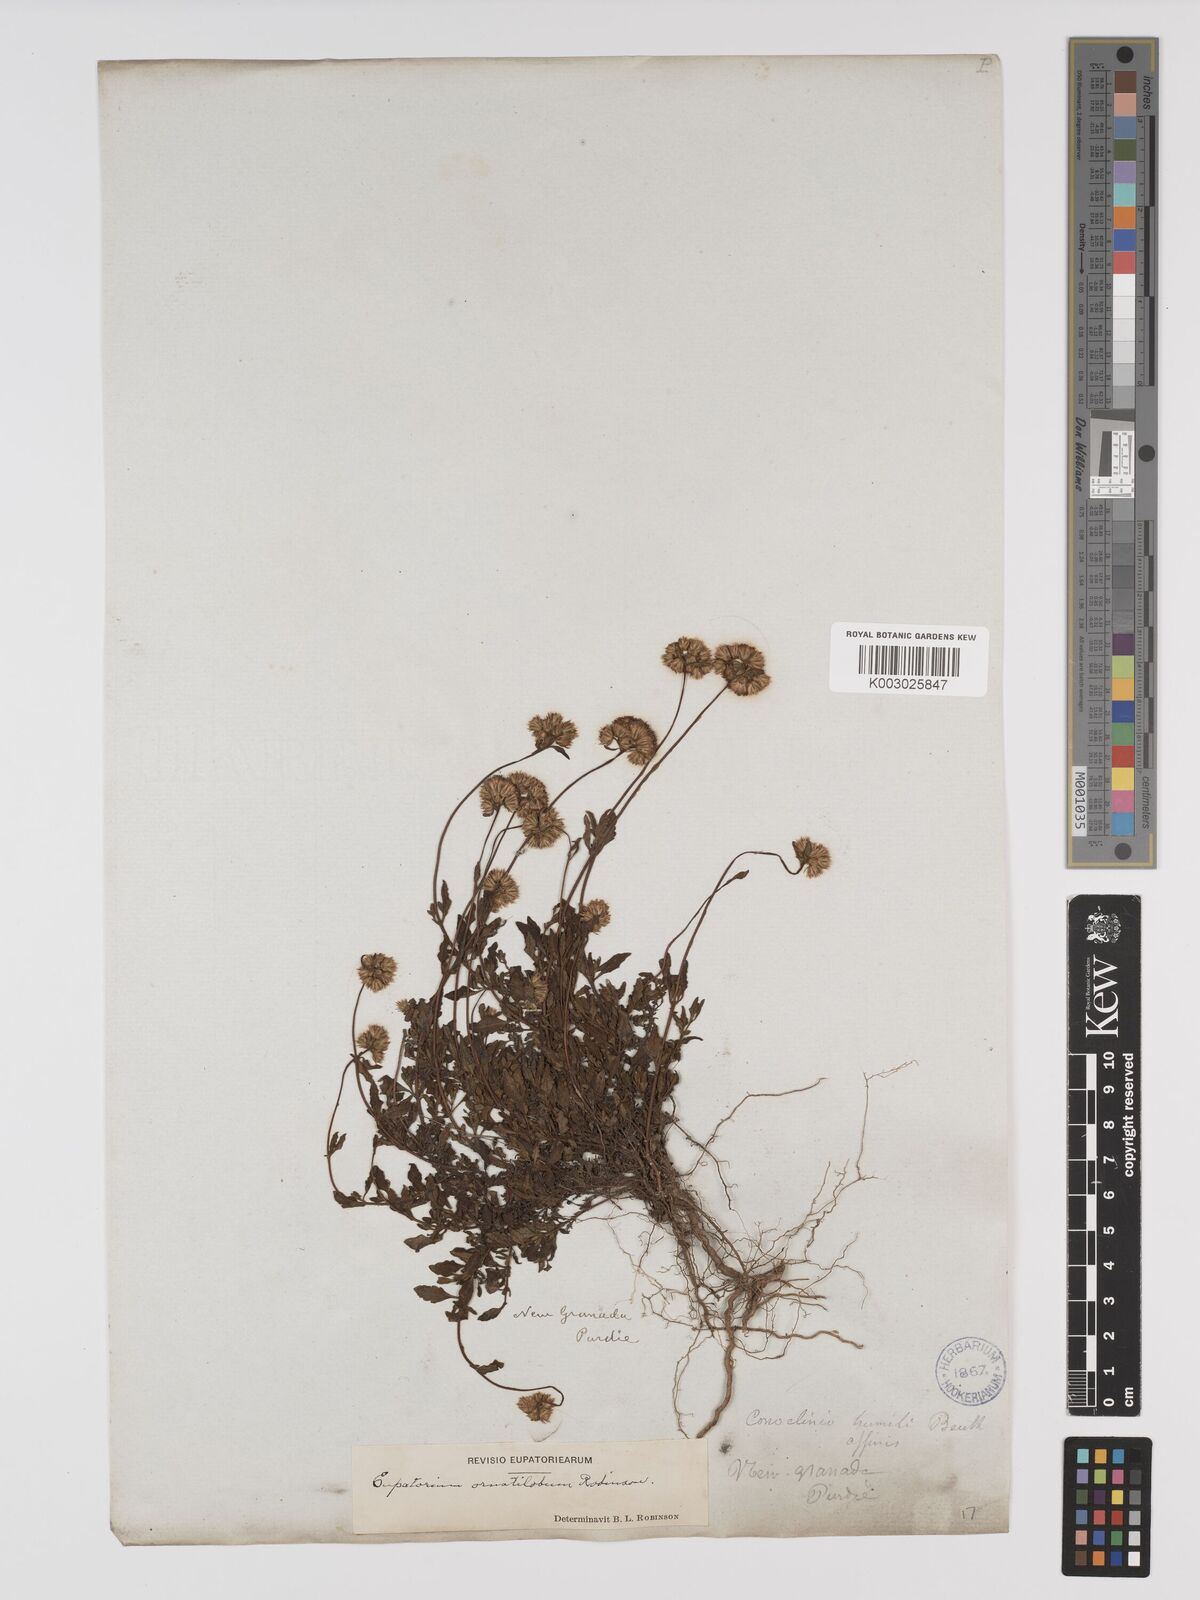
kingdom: Plantae
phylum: Tracheophyta
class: Magnoliopsida
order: Asterales
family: Asteraceae
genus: Lourteigia
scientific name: Lourteigia ornatiloba
